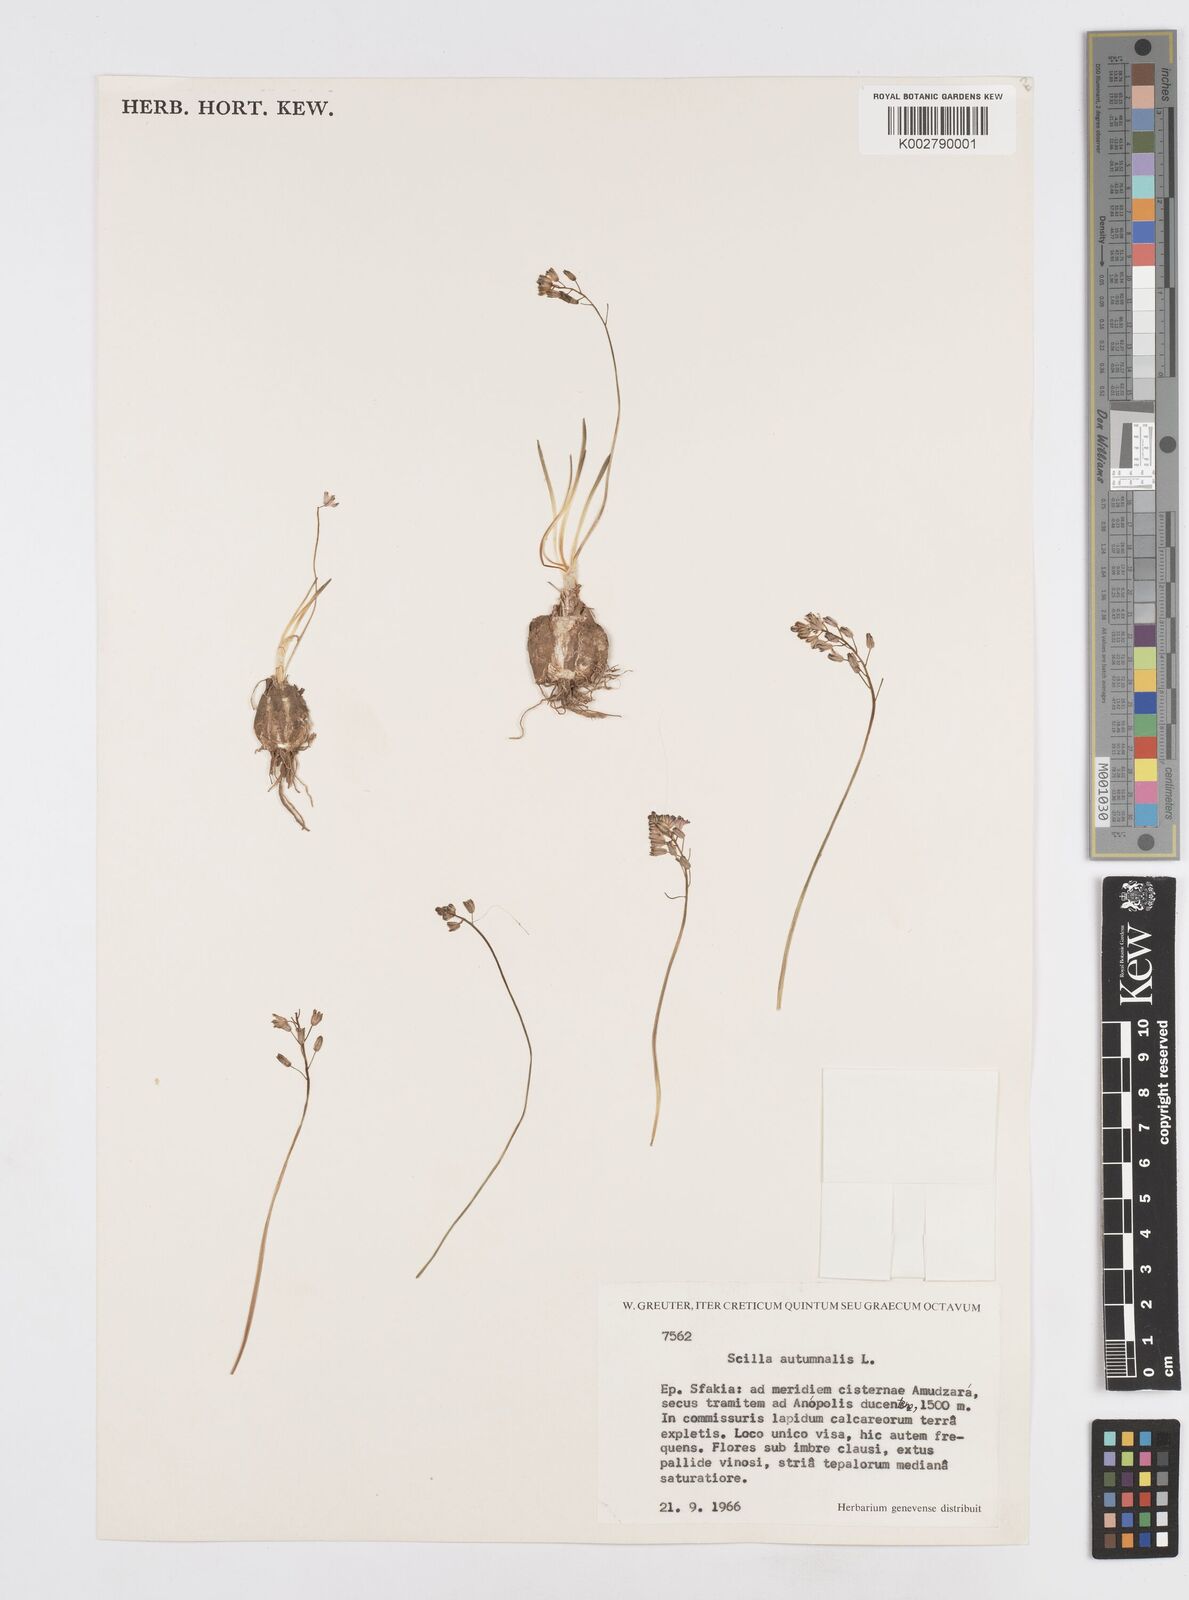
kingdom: Plantae
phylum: Tracheophyta
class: Liliopsida
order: Asparagales
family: Asparagaceae
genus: Prospero
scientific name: Prospero autumnale
